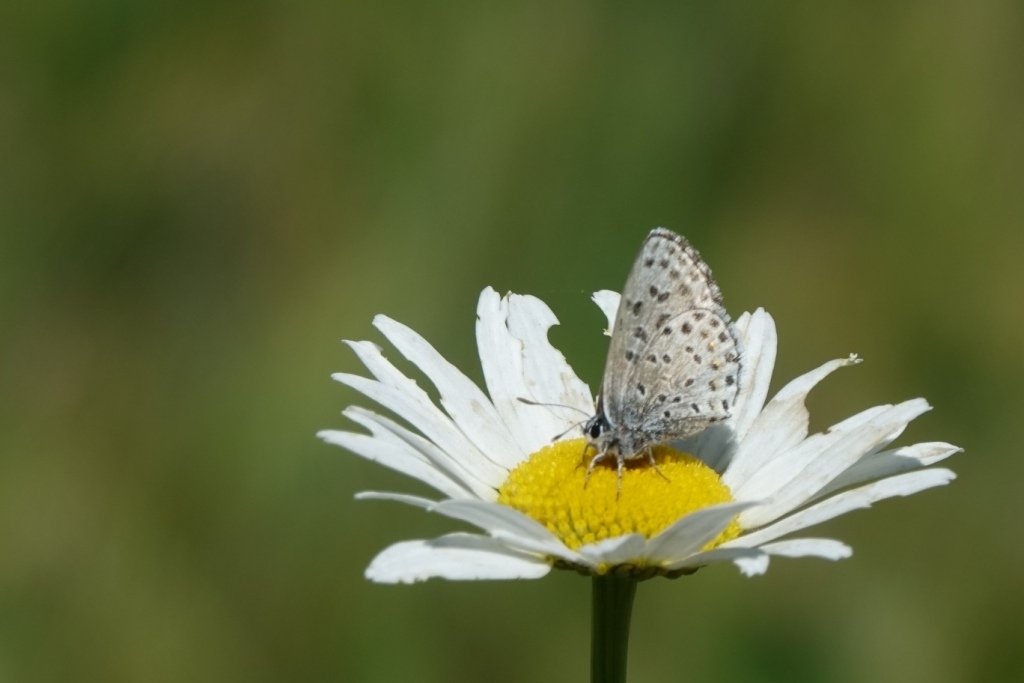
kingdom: Animalia
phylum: Arthropoda
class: Insecta
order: Lepidoptera
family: Lycaenidae
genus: Euphilotes
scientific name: Euphilotes
